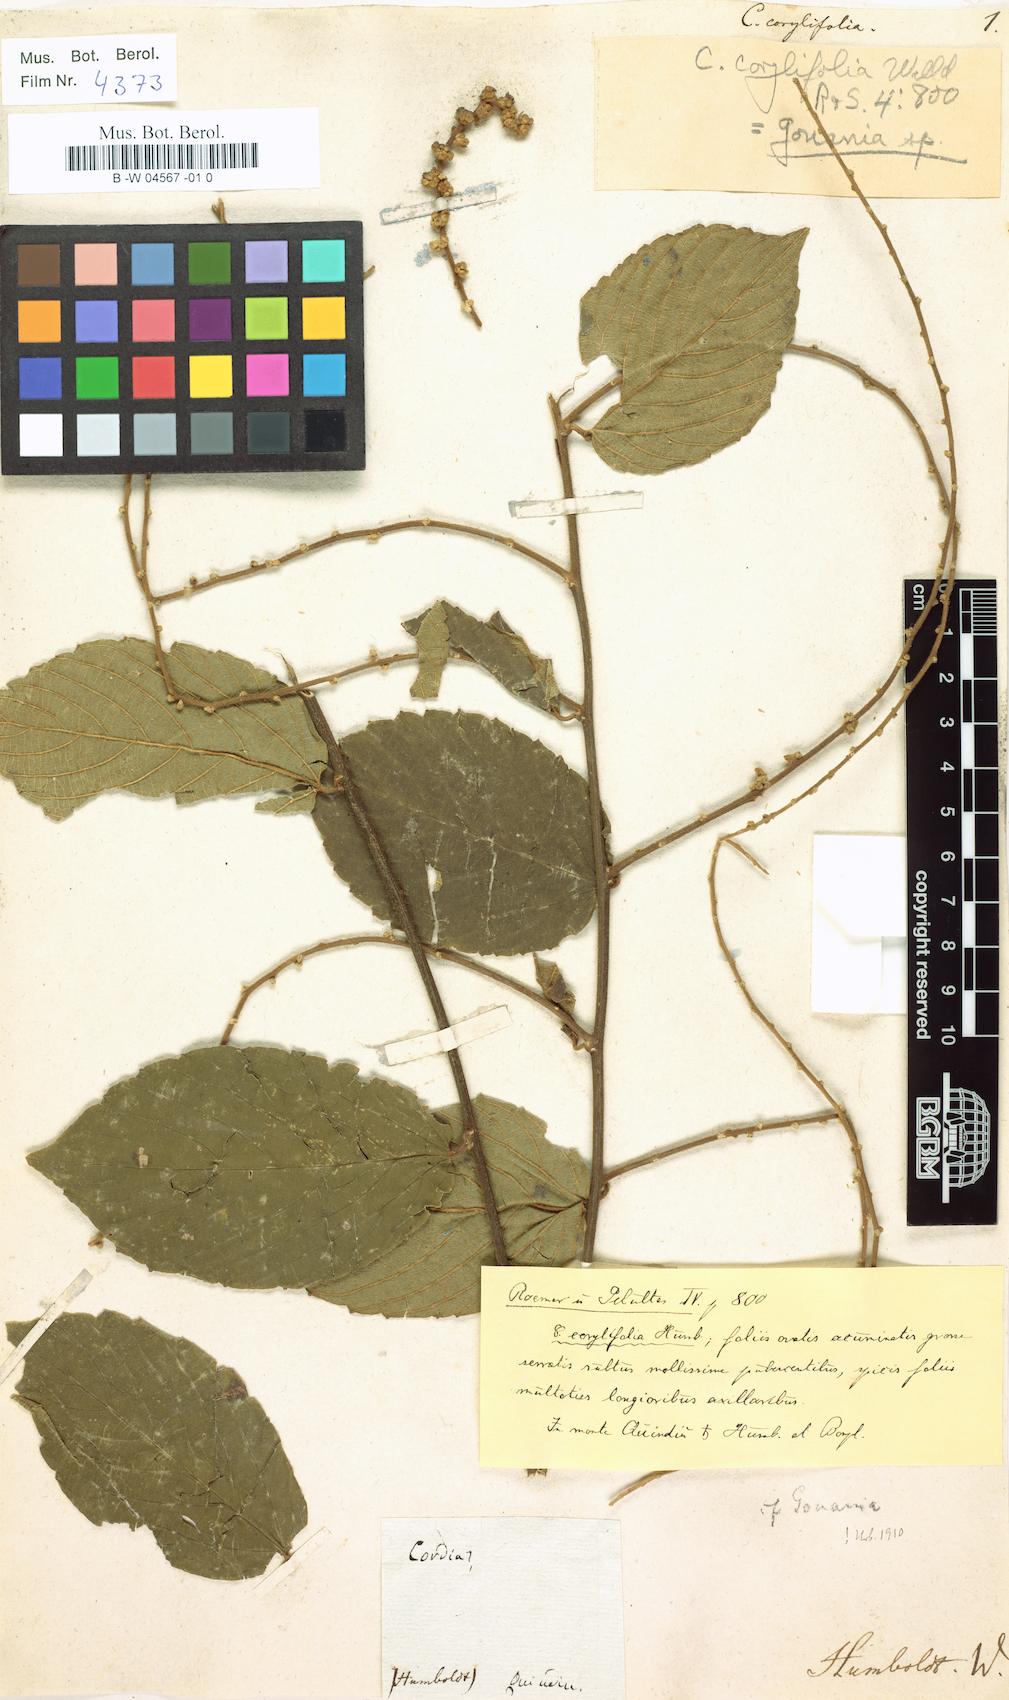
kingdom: Plantae
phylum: Tracheophyta
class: Magnoliopsida
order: Boraginales
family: Cordiaceae
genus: Cordia
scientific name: Cordia dentata
